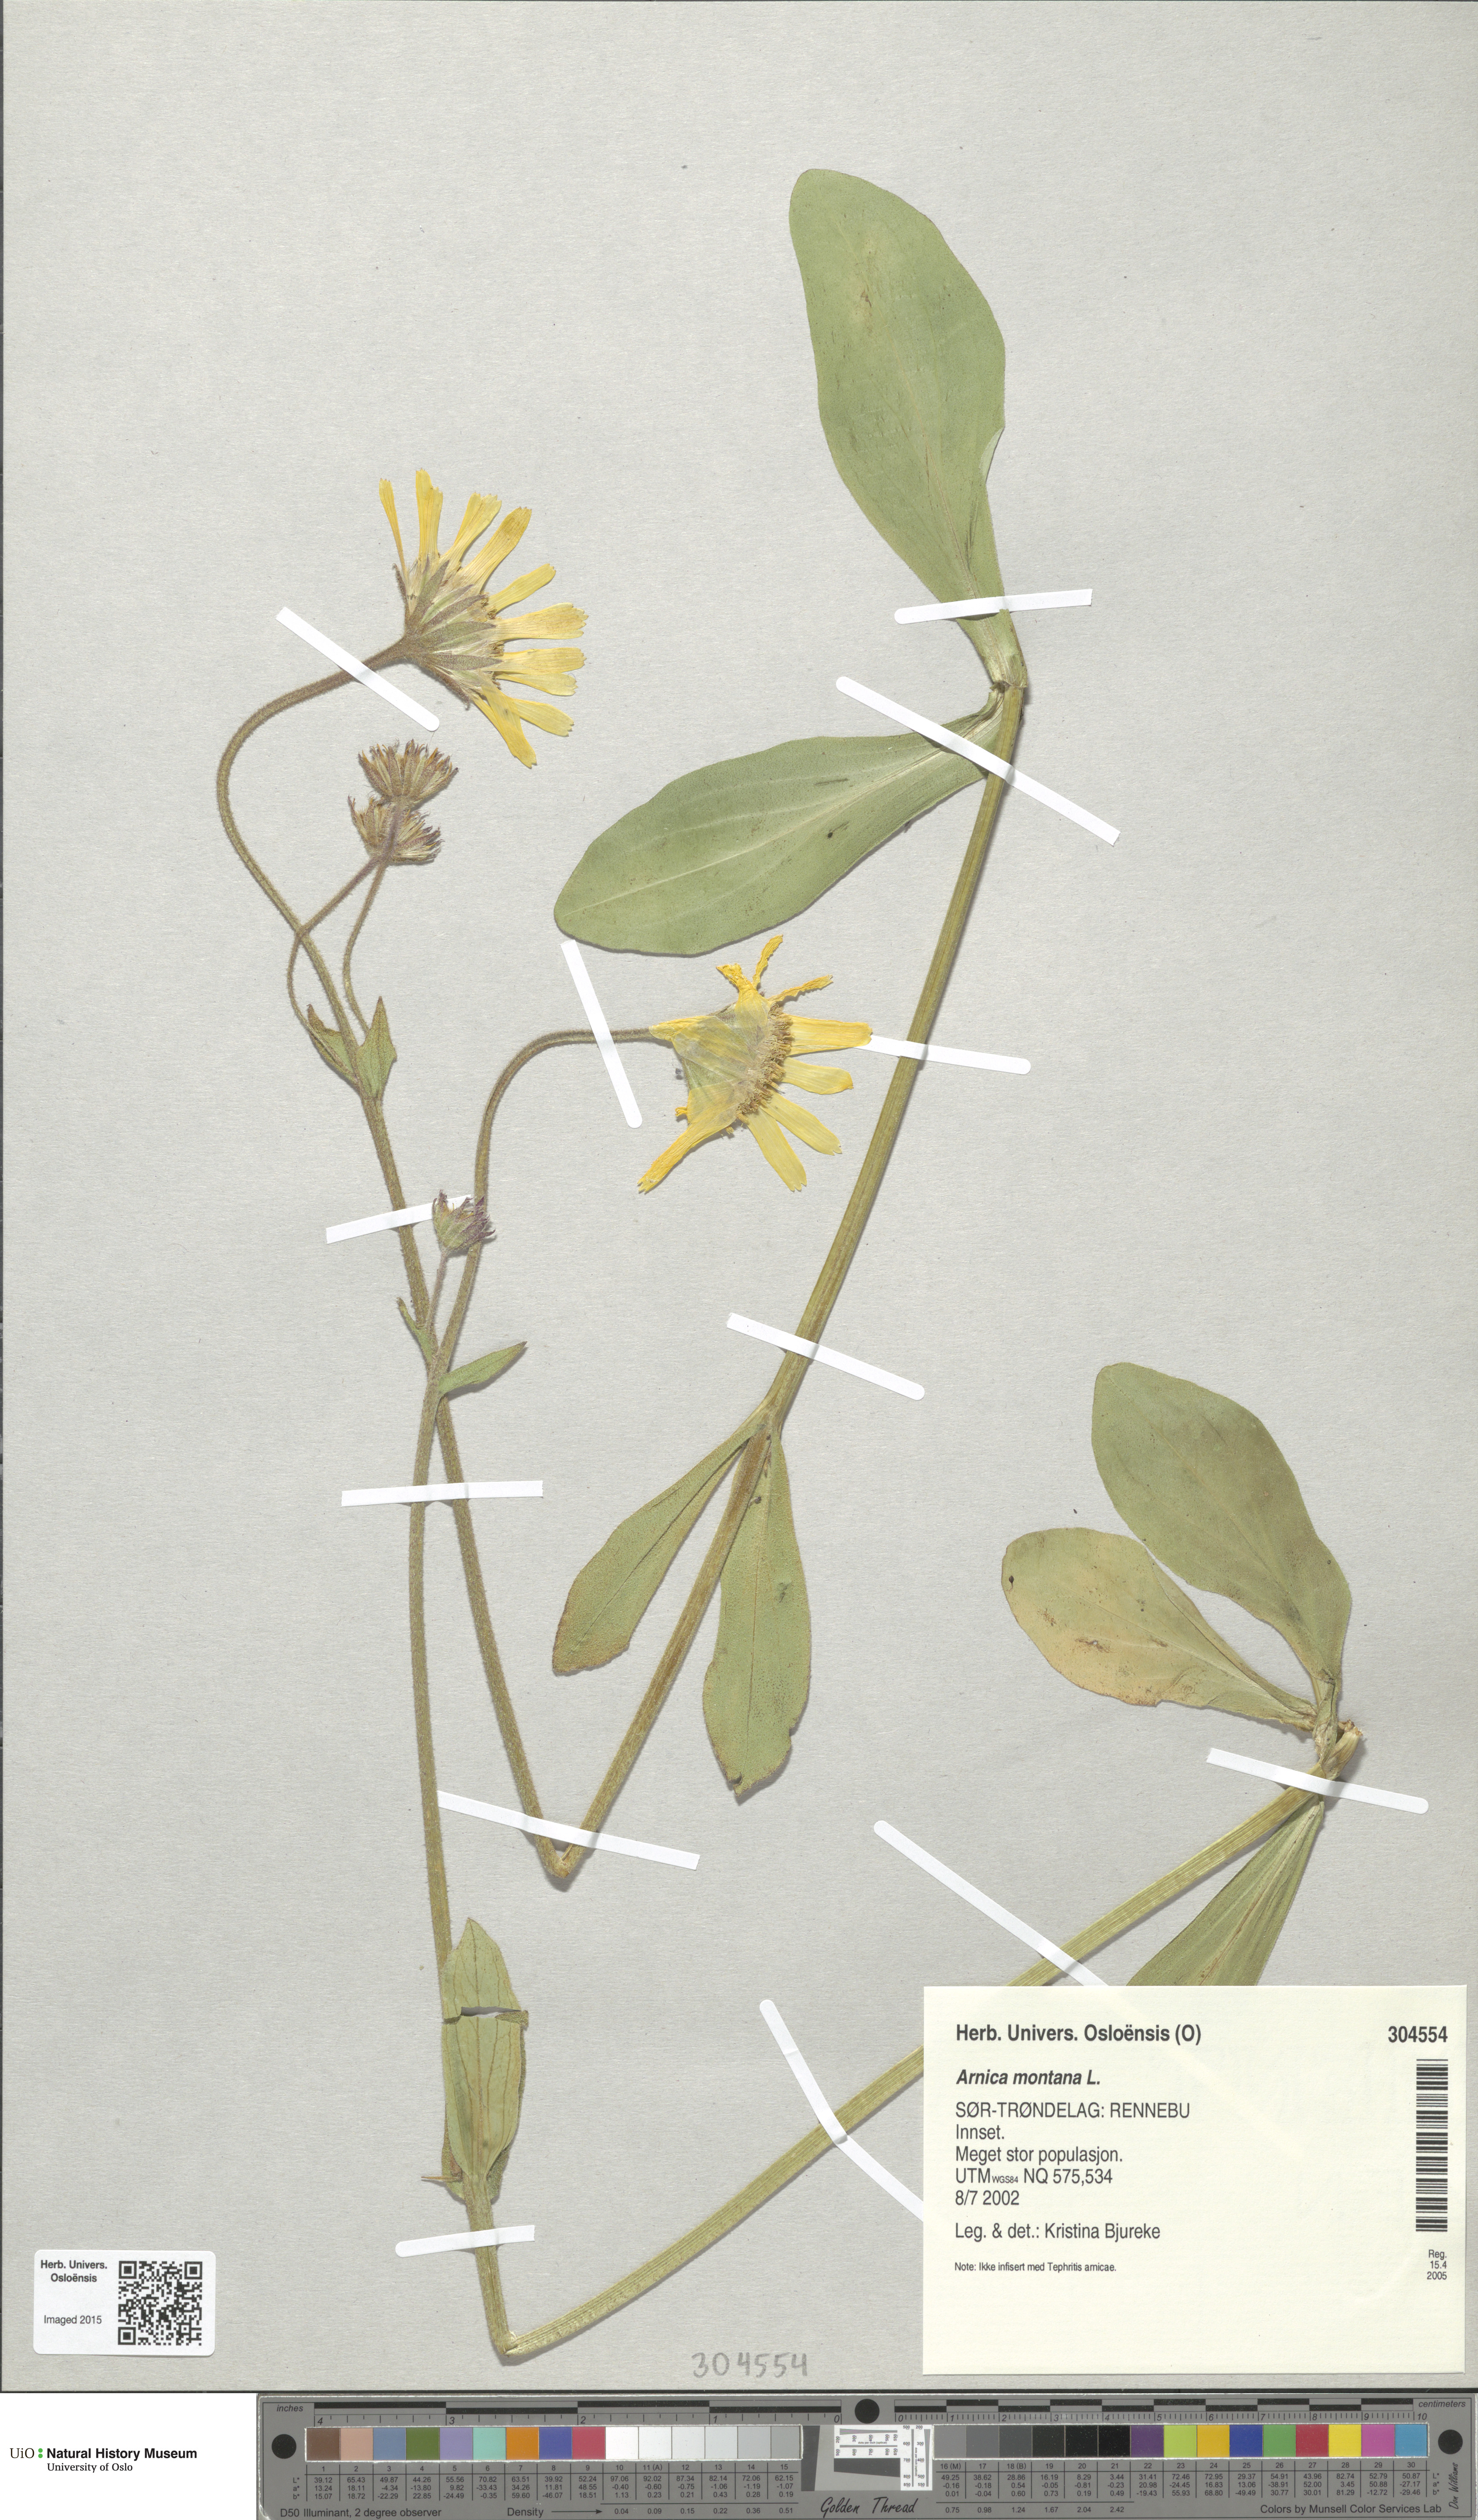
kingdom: Plantae
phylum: Tracheophyta
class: Magnoliopsida
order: Asterales
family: Asteraceae
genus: Arnica
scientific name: Arnica montana
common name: Leopard's bane
